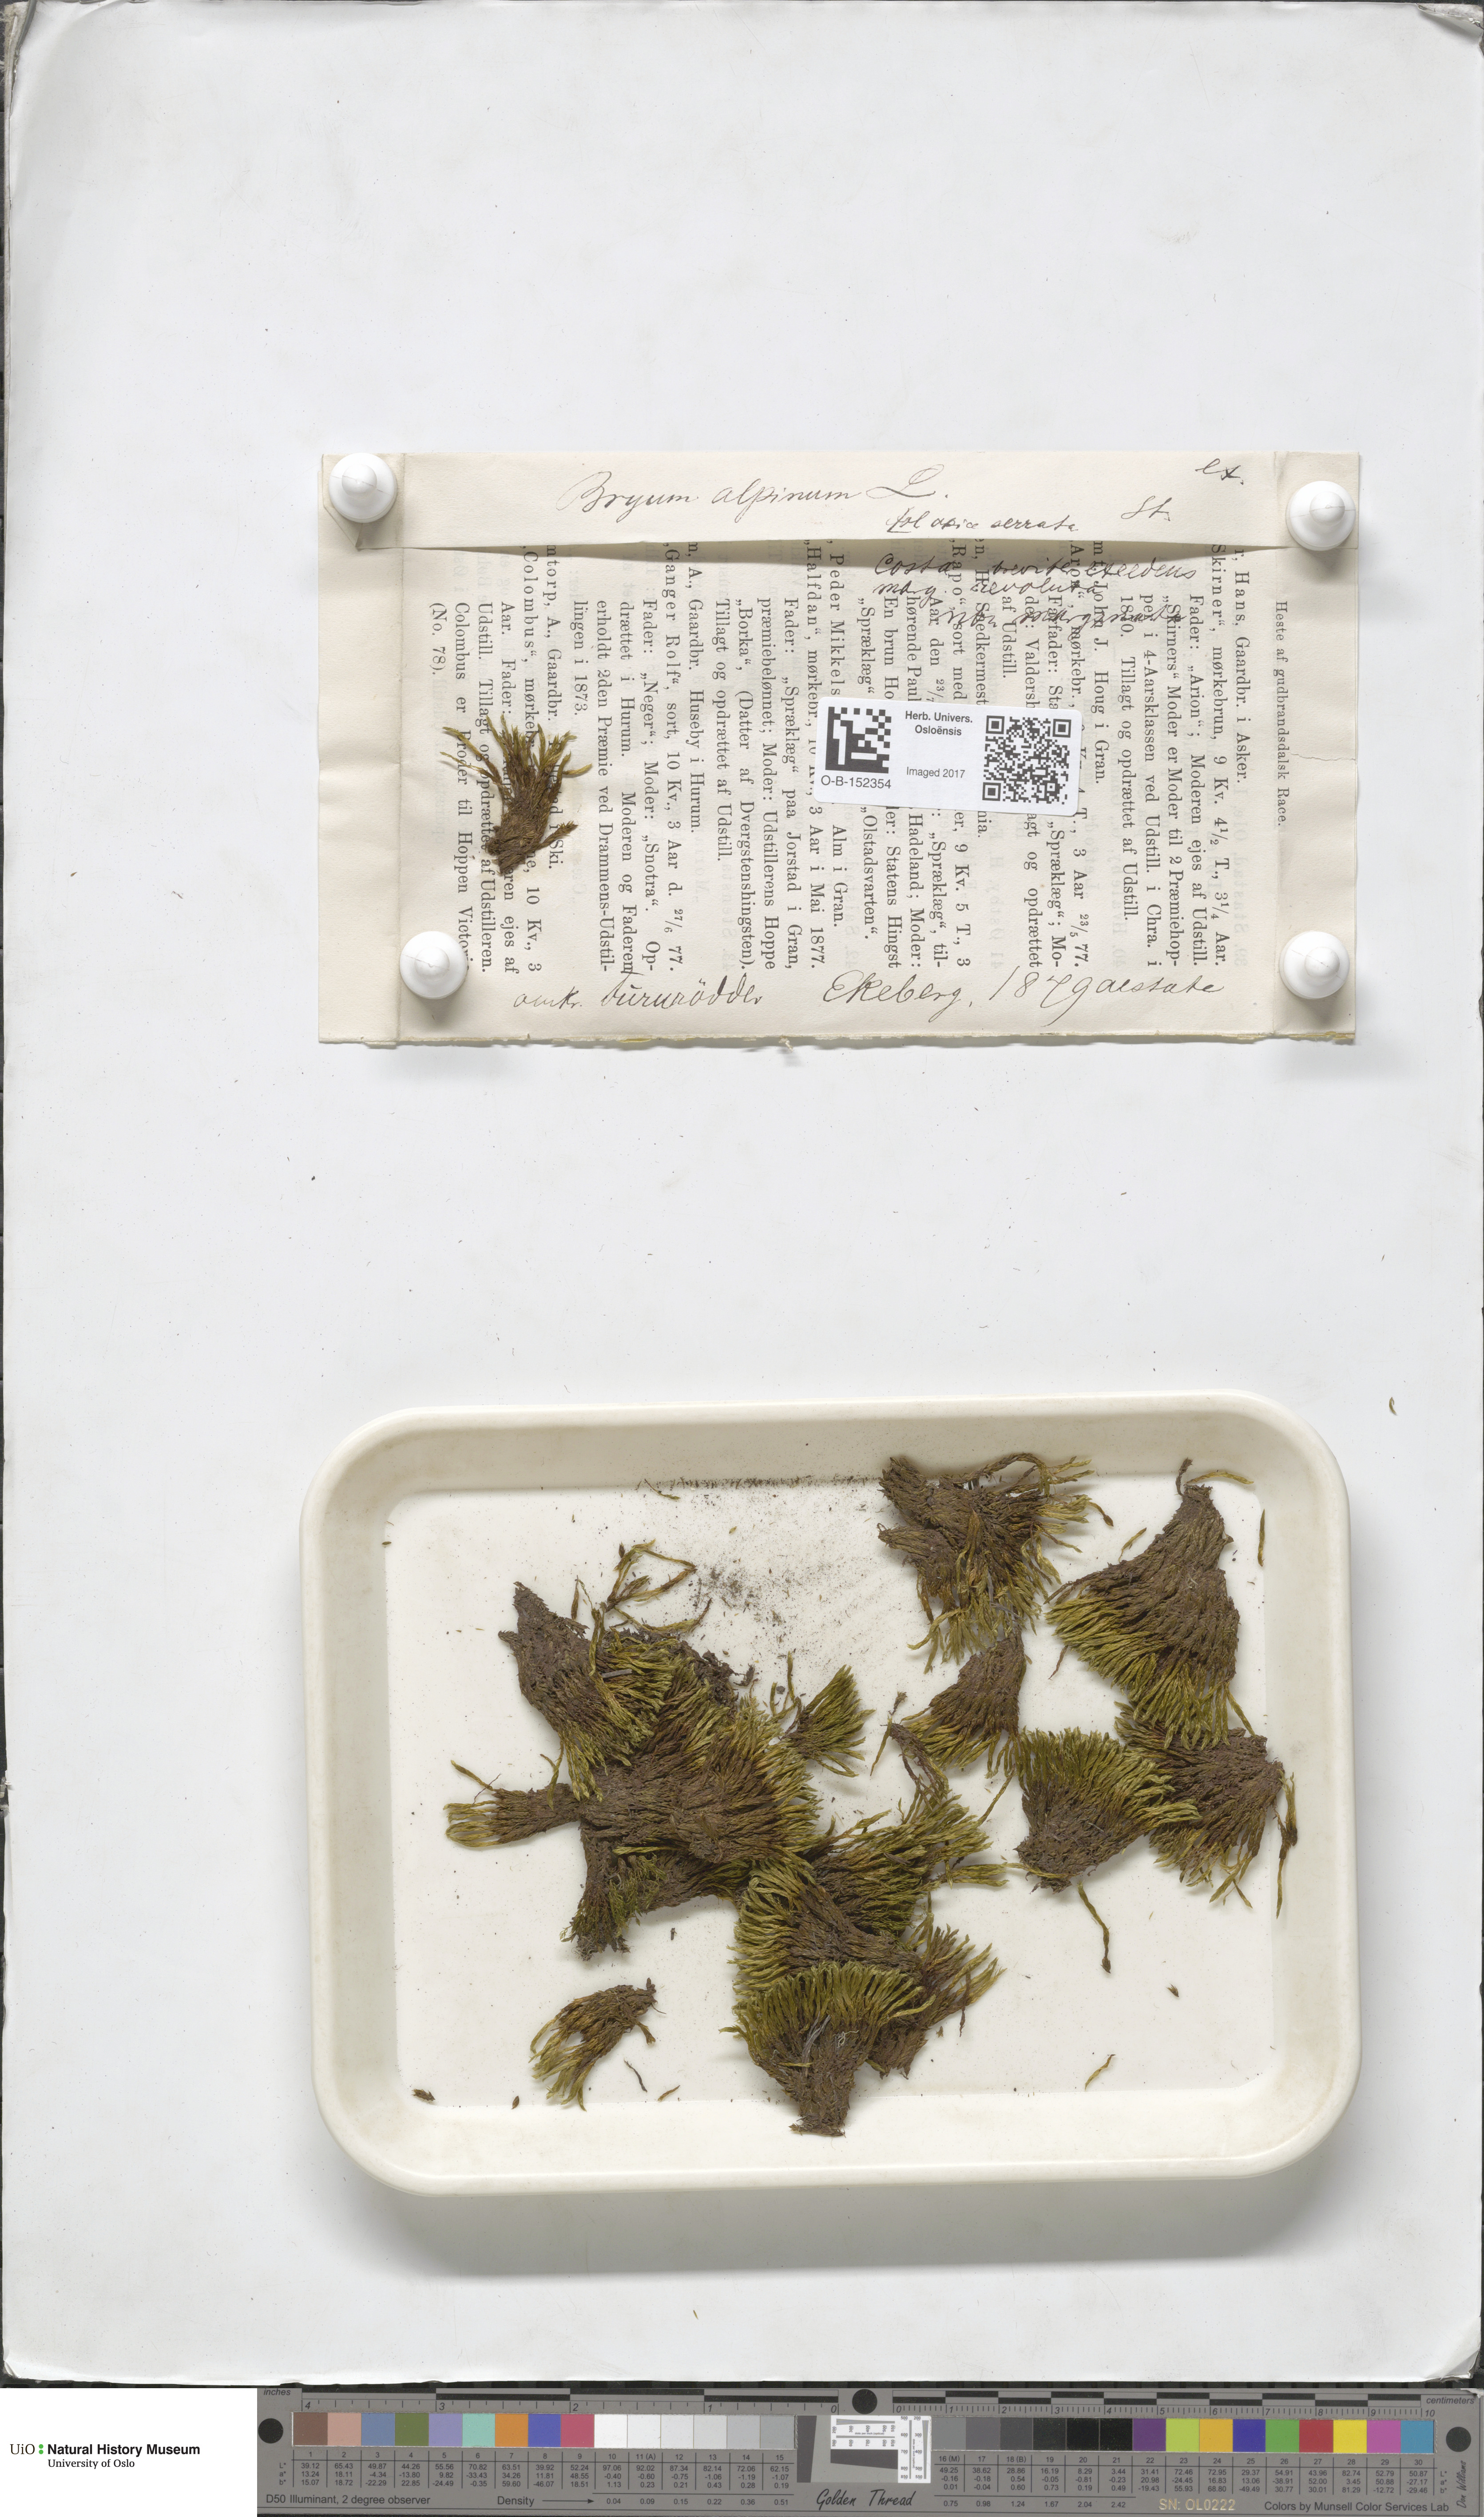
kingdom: Plantae
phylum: Bryophyta
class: Bryopsida
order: Bryales
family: Bryaceae
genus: Imbribryum
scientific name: Imbribryum alpinum
